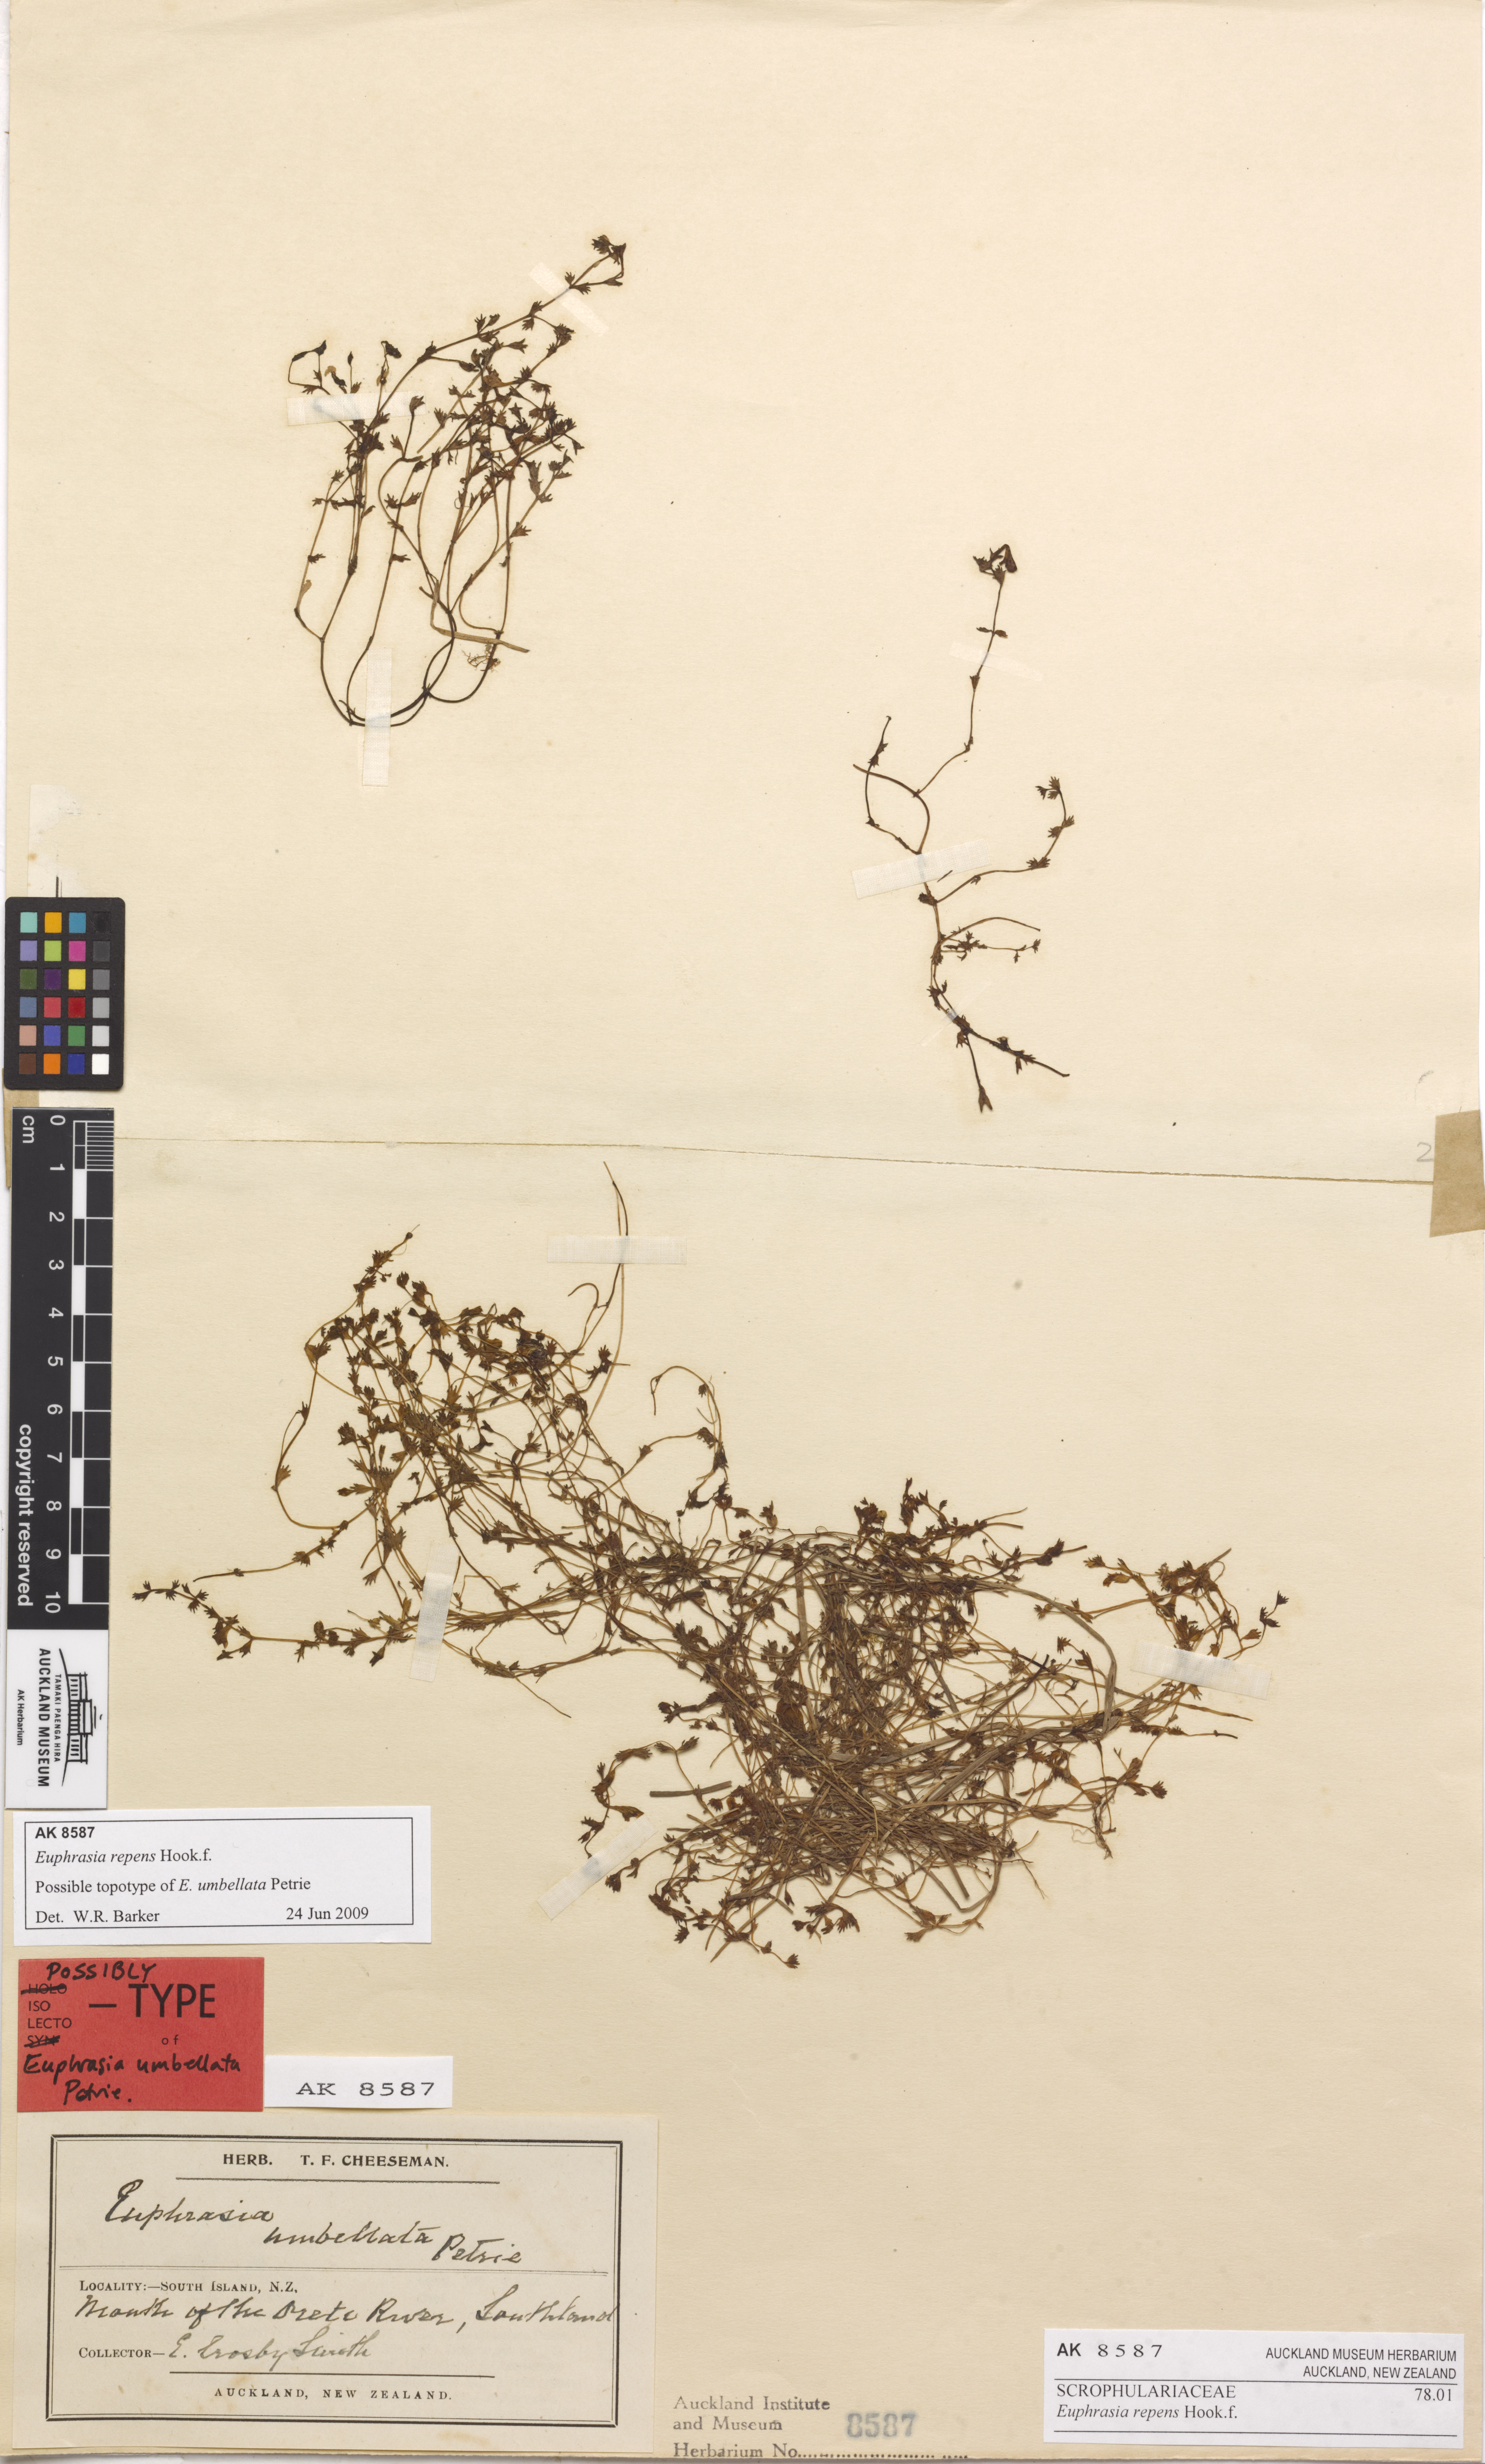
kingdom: Plantae
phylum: Tracheophyta
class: Magnoliopsida
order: Lamiales
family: Orobanchaceae
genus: Euphrasia
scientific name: Euphrasia repens
